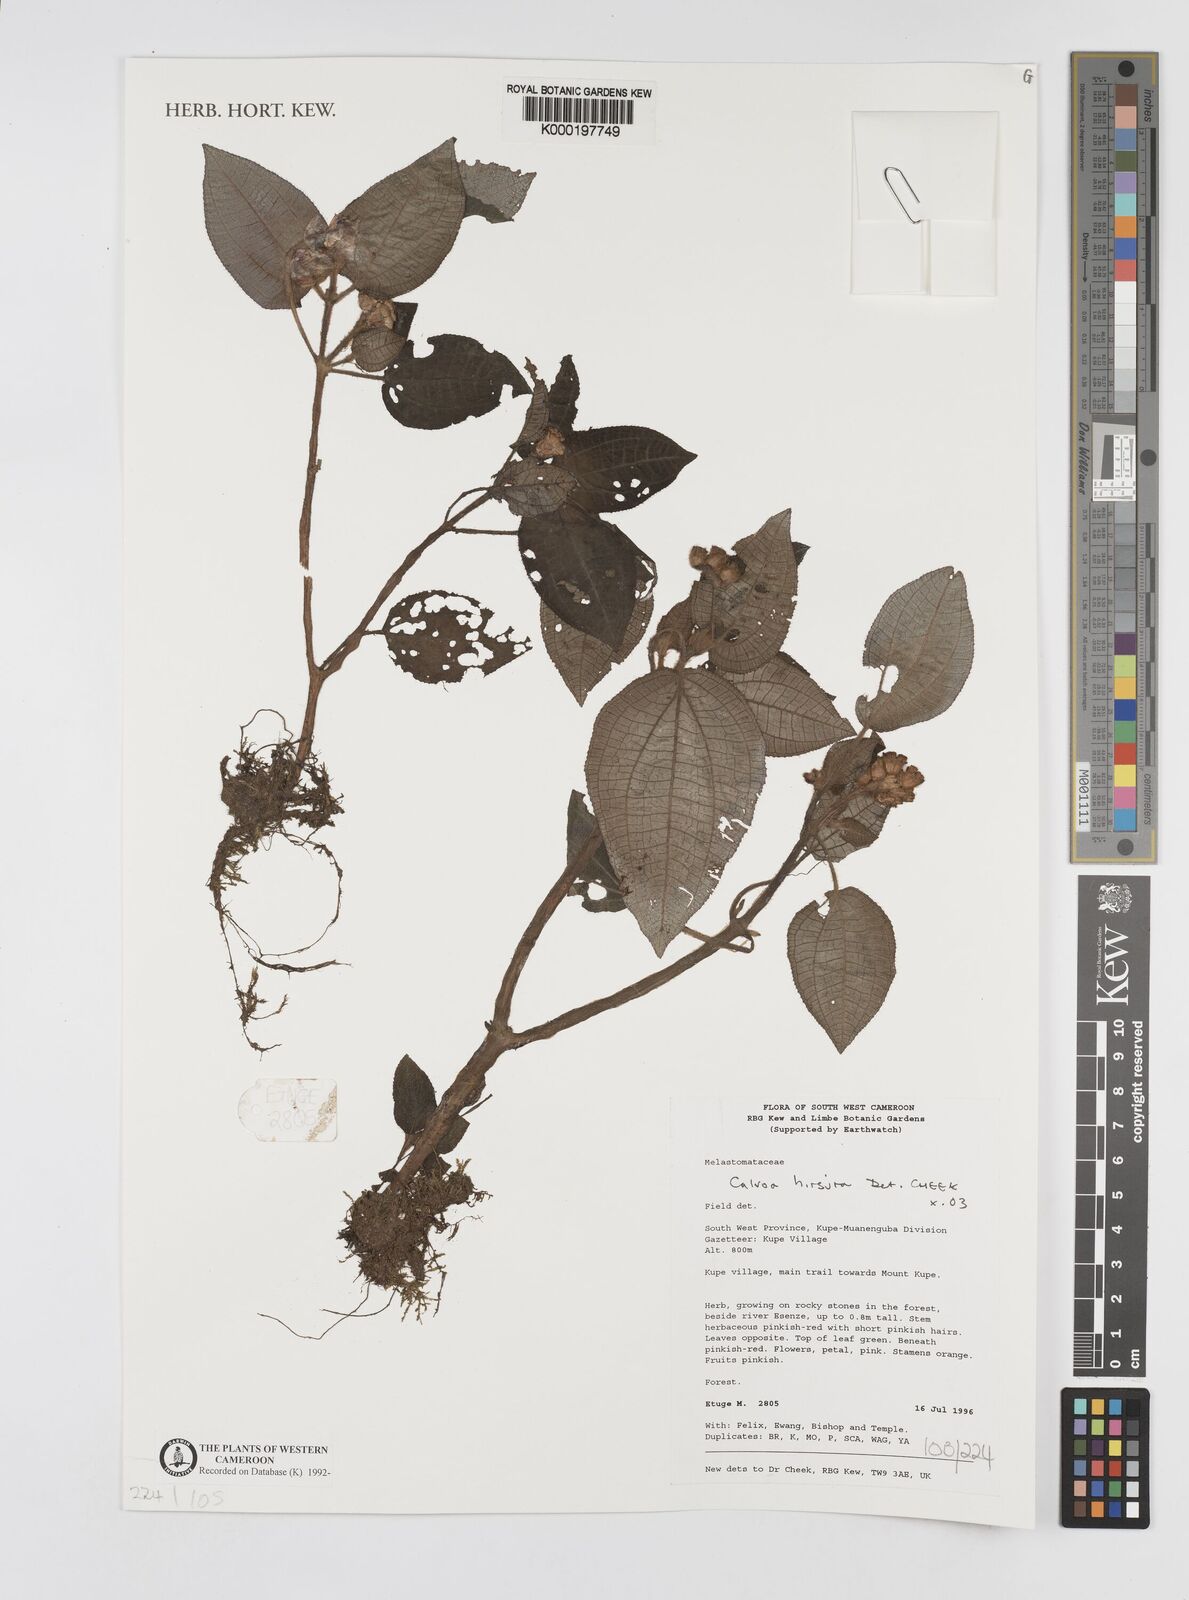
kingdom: Plantae
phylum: Tracheophyta
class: Magnoliopsida
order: Myrtales
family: Melastomataceae
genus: Calvoa
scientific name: Calvoa
